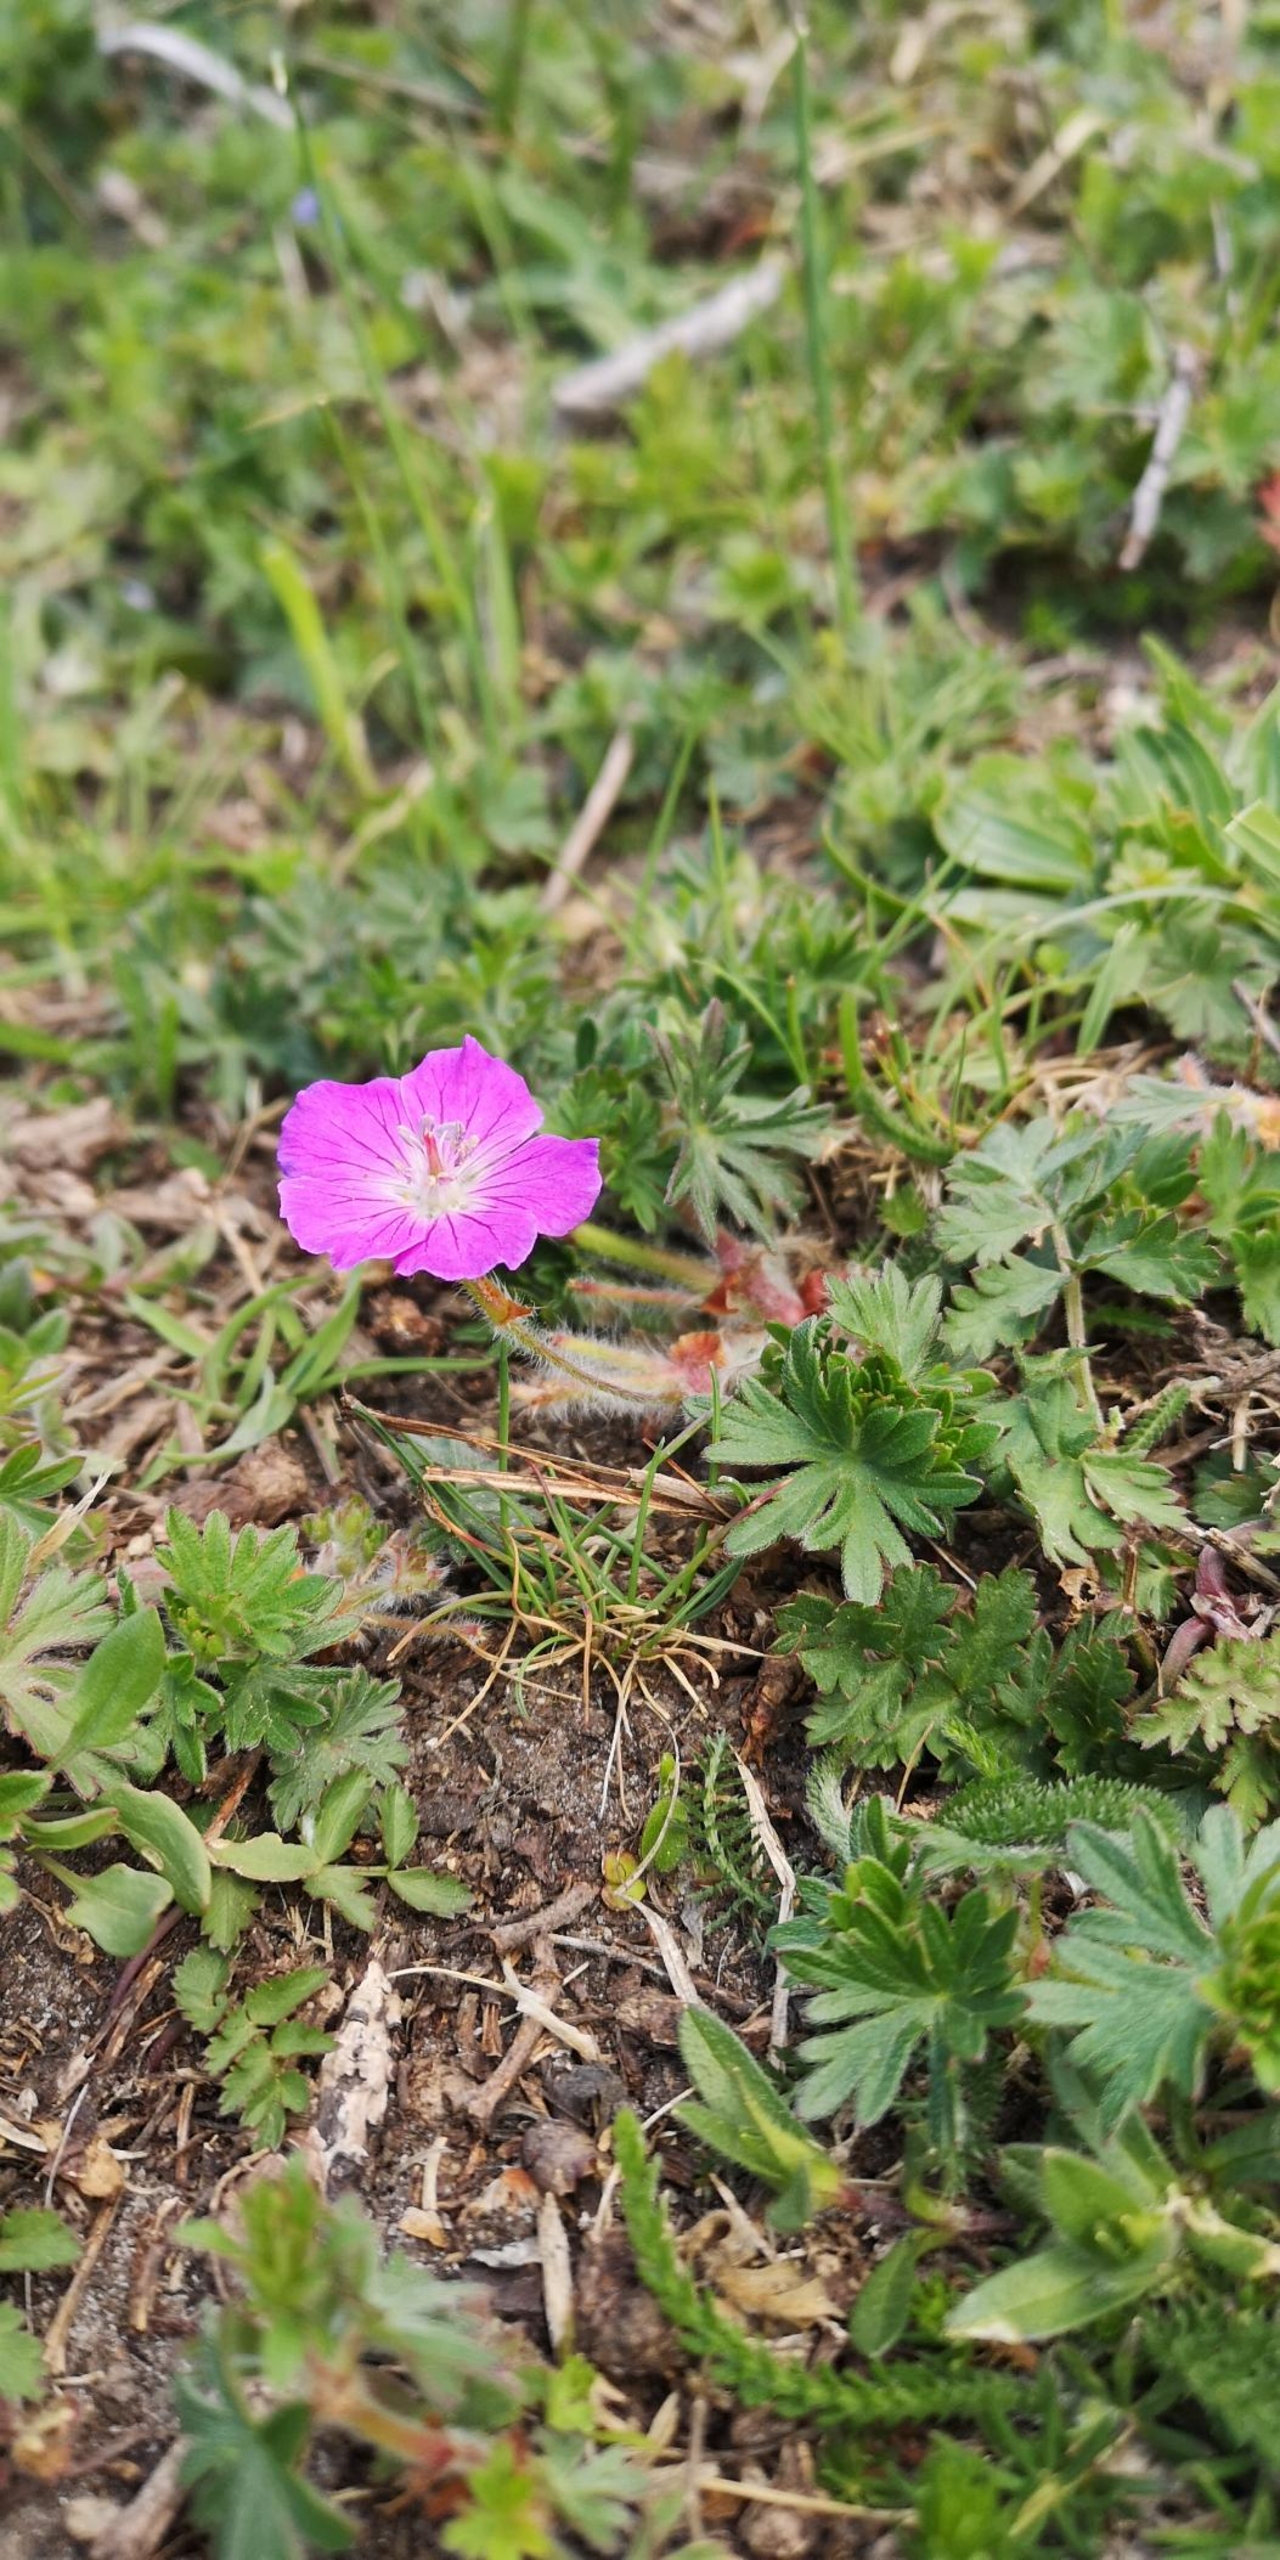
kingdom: Plantae
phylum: Tracheophyta
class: Magnoliopsida
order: Geraniales
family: Geraniaceae
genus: Geranium
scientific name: Geranium sanguineum
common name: Blodrød storkenæb
